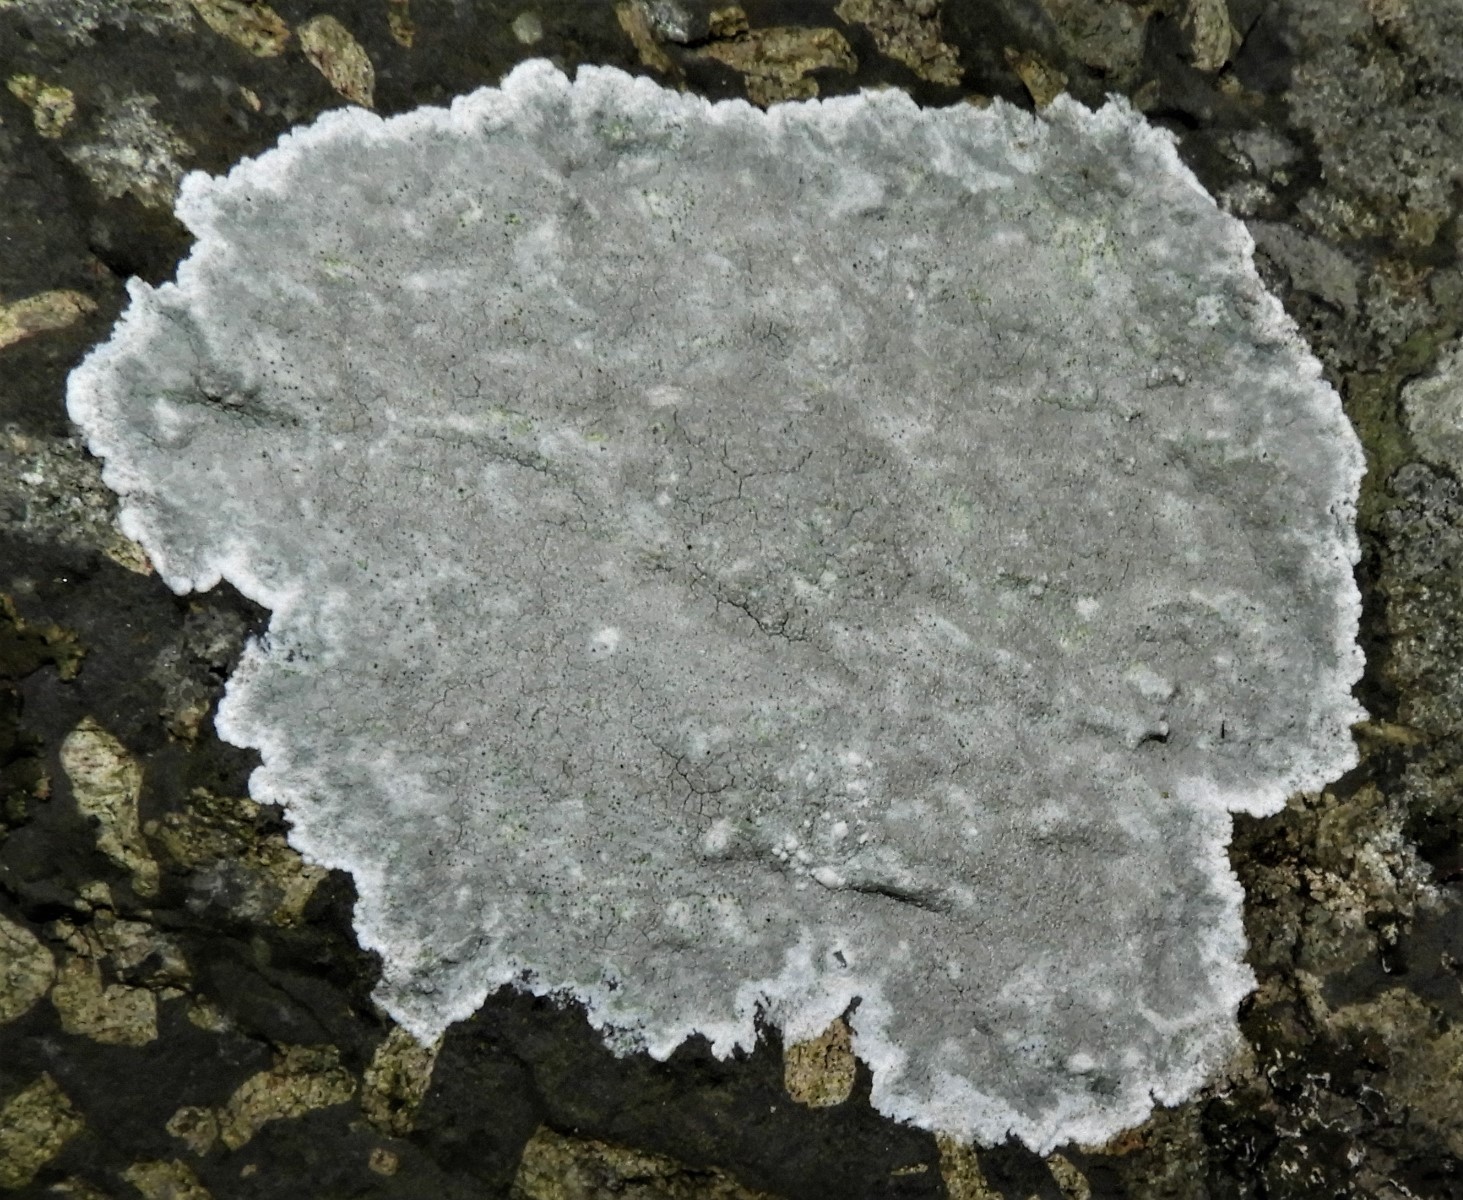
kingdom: Fungi
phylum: Ascomycota
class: Lecanoromycetes
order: Lecanorales
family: Lecanoraceae
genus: Glaucomaria
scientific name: Glaucomaria rupicola
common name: stengærde-kantskivelav
